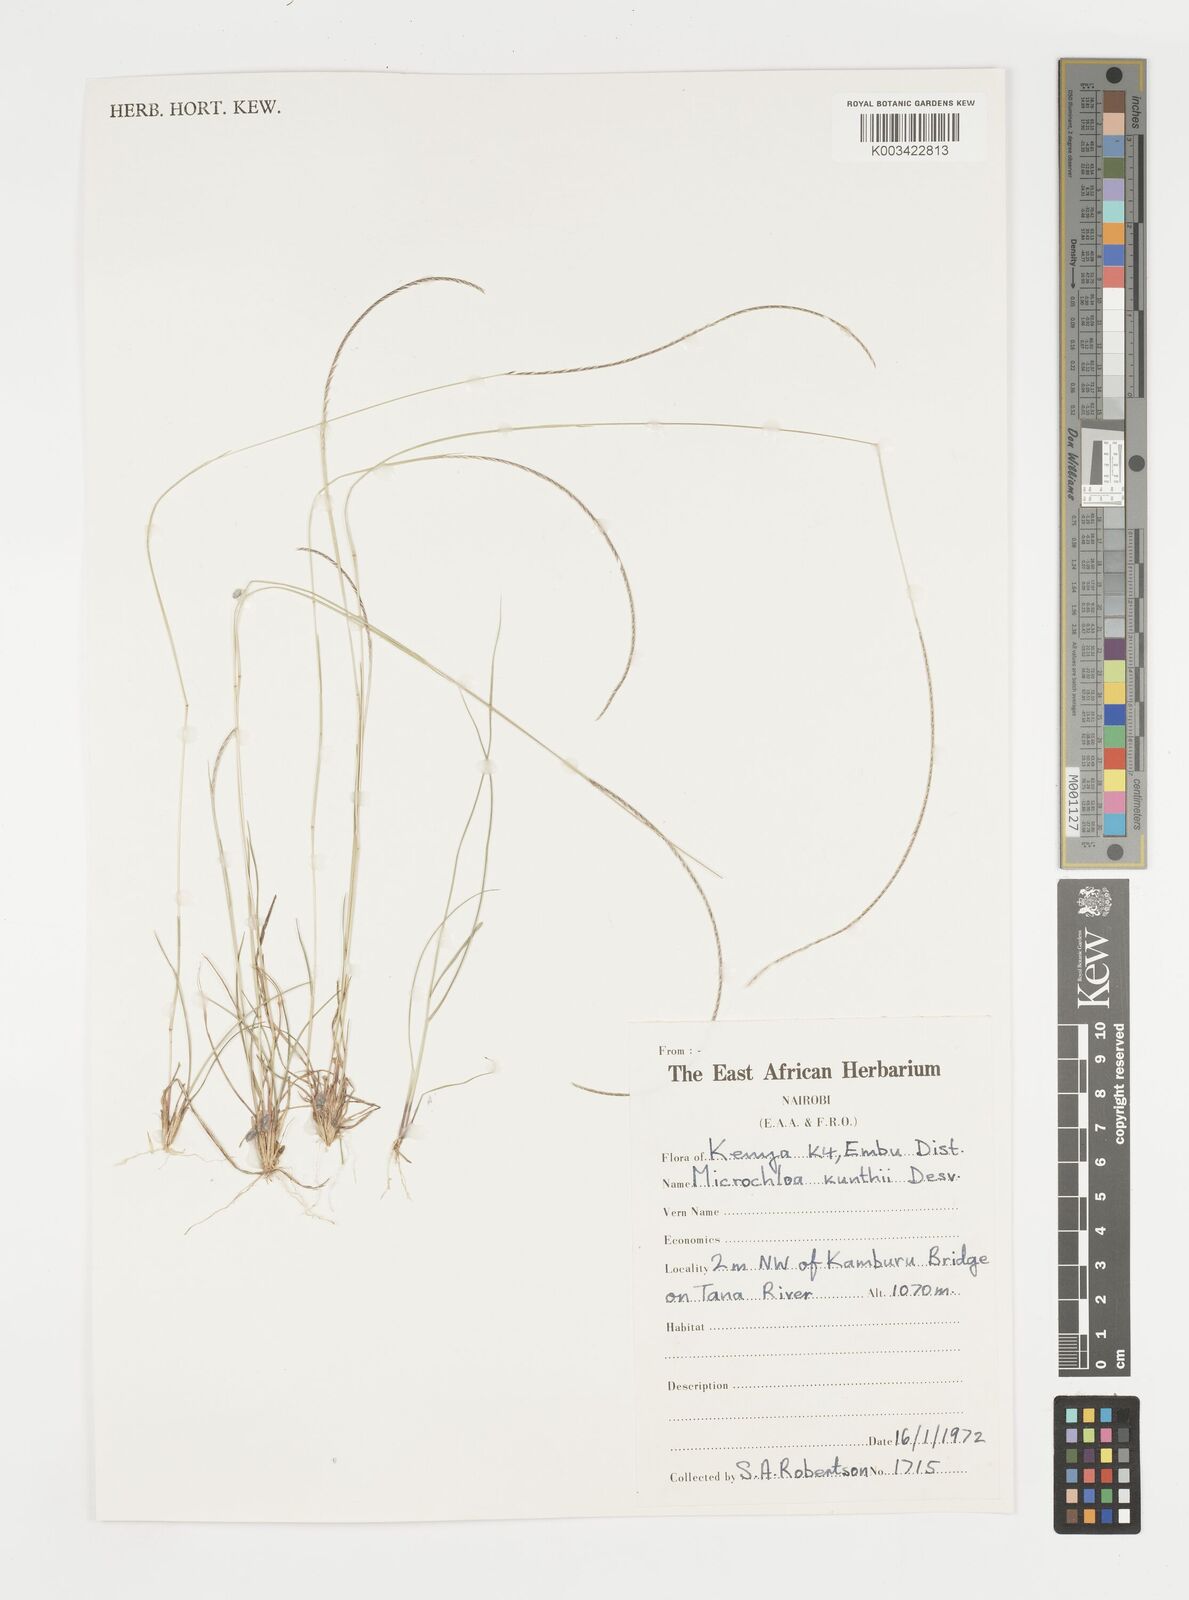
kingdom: Plantae
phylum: Tracheophyta
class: Liliopsida
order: Poales
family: Poaceae
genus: Microchloa
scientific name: Microchloa kunthii
